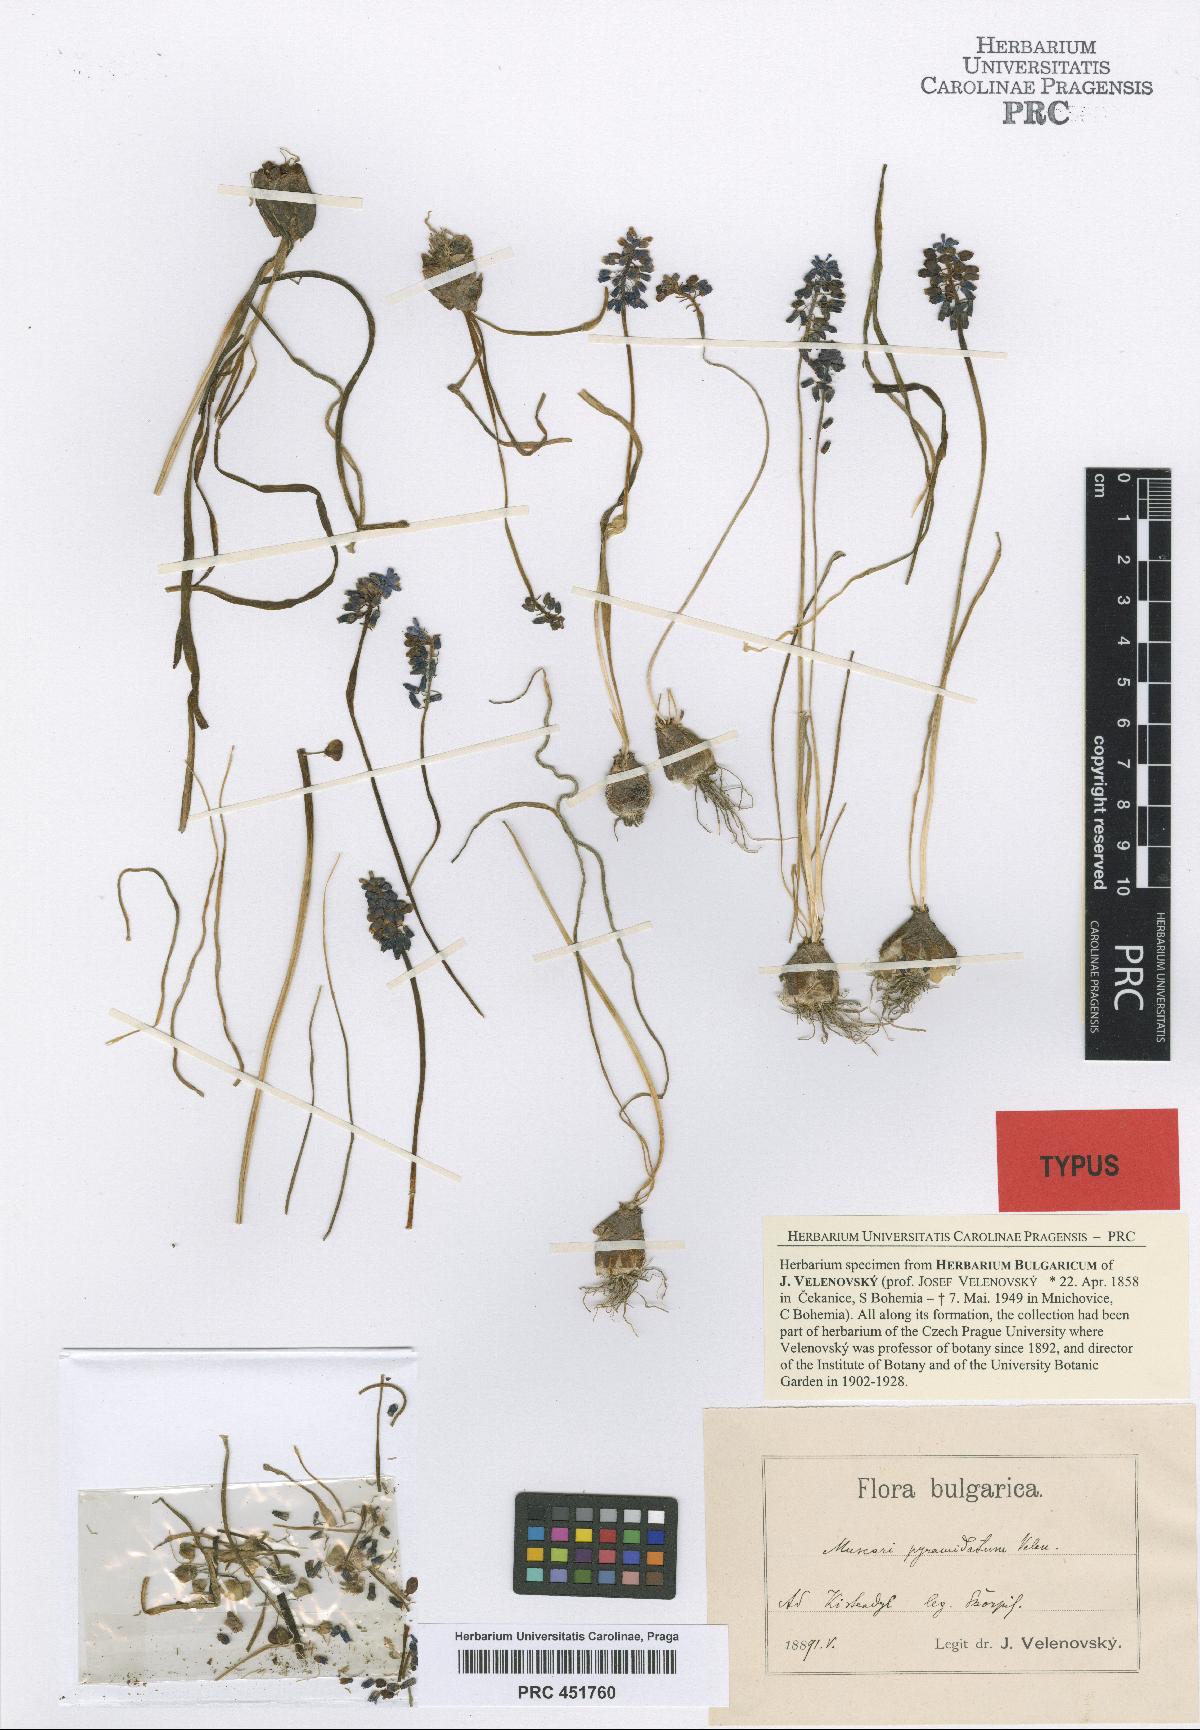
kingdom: Plantae
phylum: Tracheophyta
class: Liliopsida
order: Asparagales
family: Asparagaceae
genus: Muscari
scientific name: Muscari armeniacum
